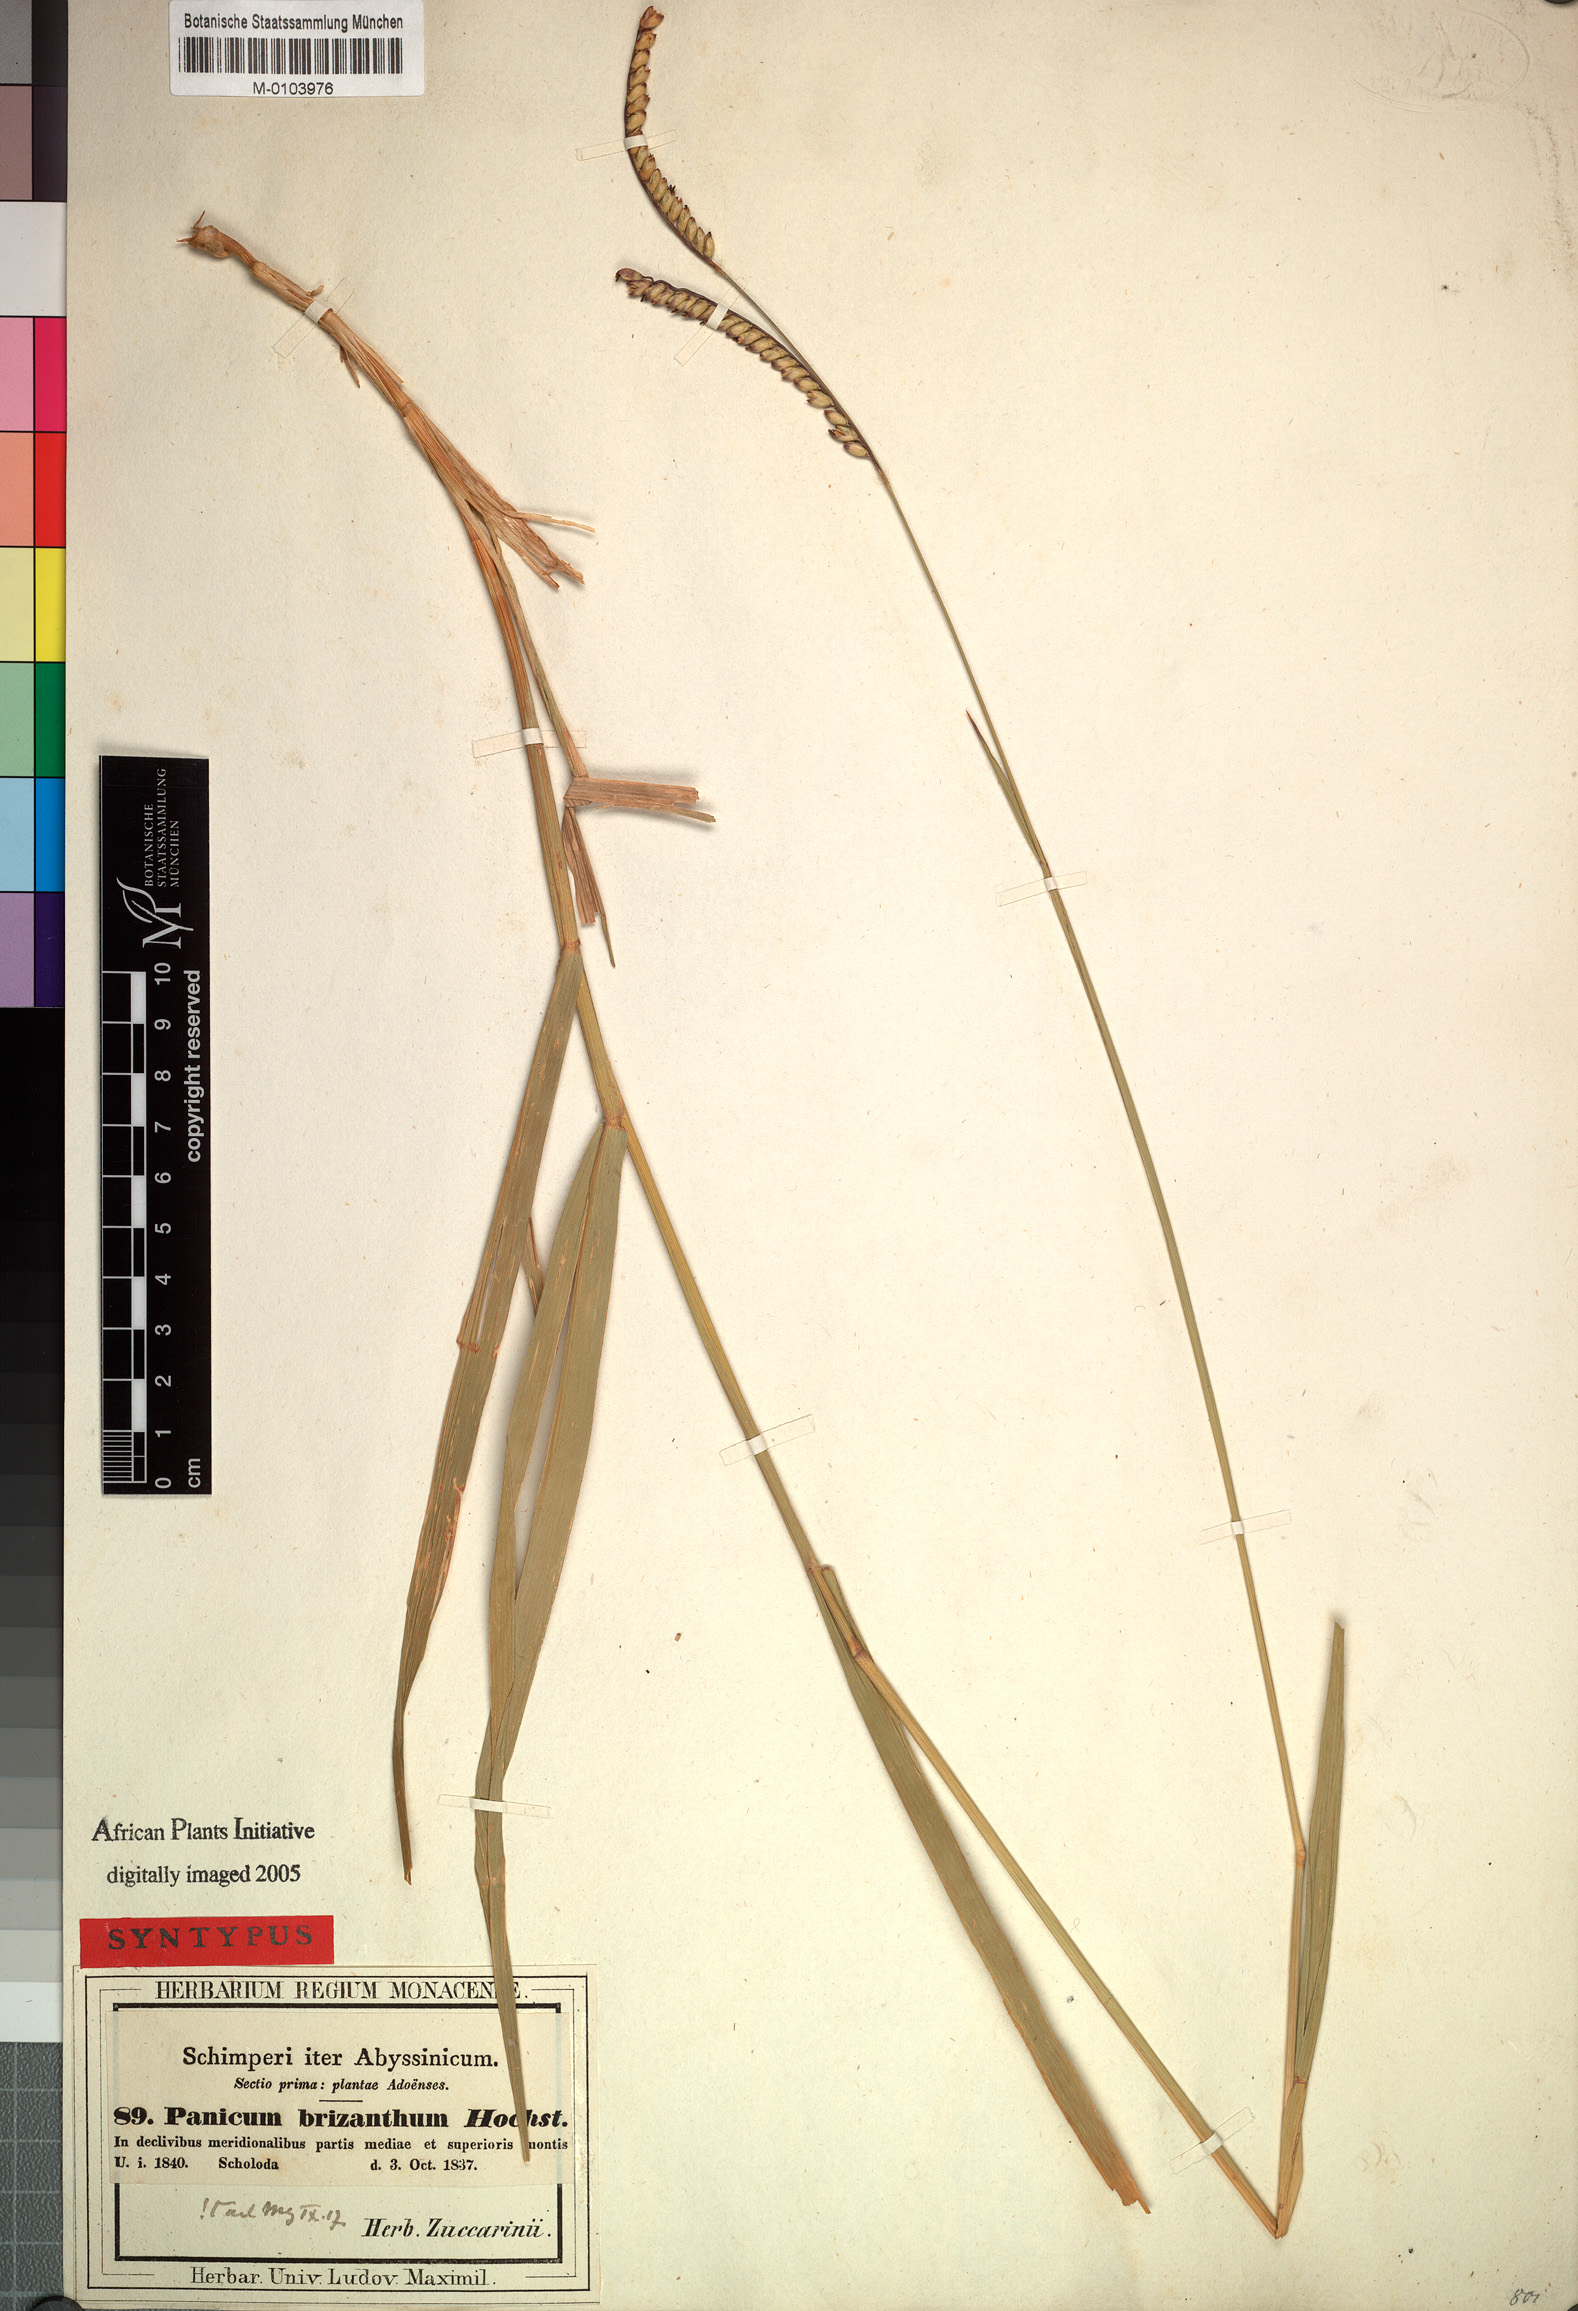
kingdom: Plantae
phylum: Tracheophyta
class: Liliopsida
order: Poales
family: Poaceae
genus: Urochloa
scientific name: Urochloa brizantha
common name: Palisade signalgrass
